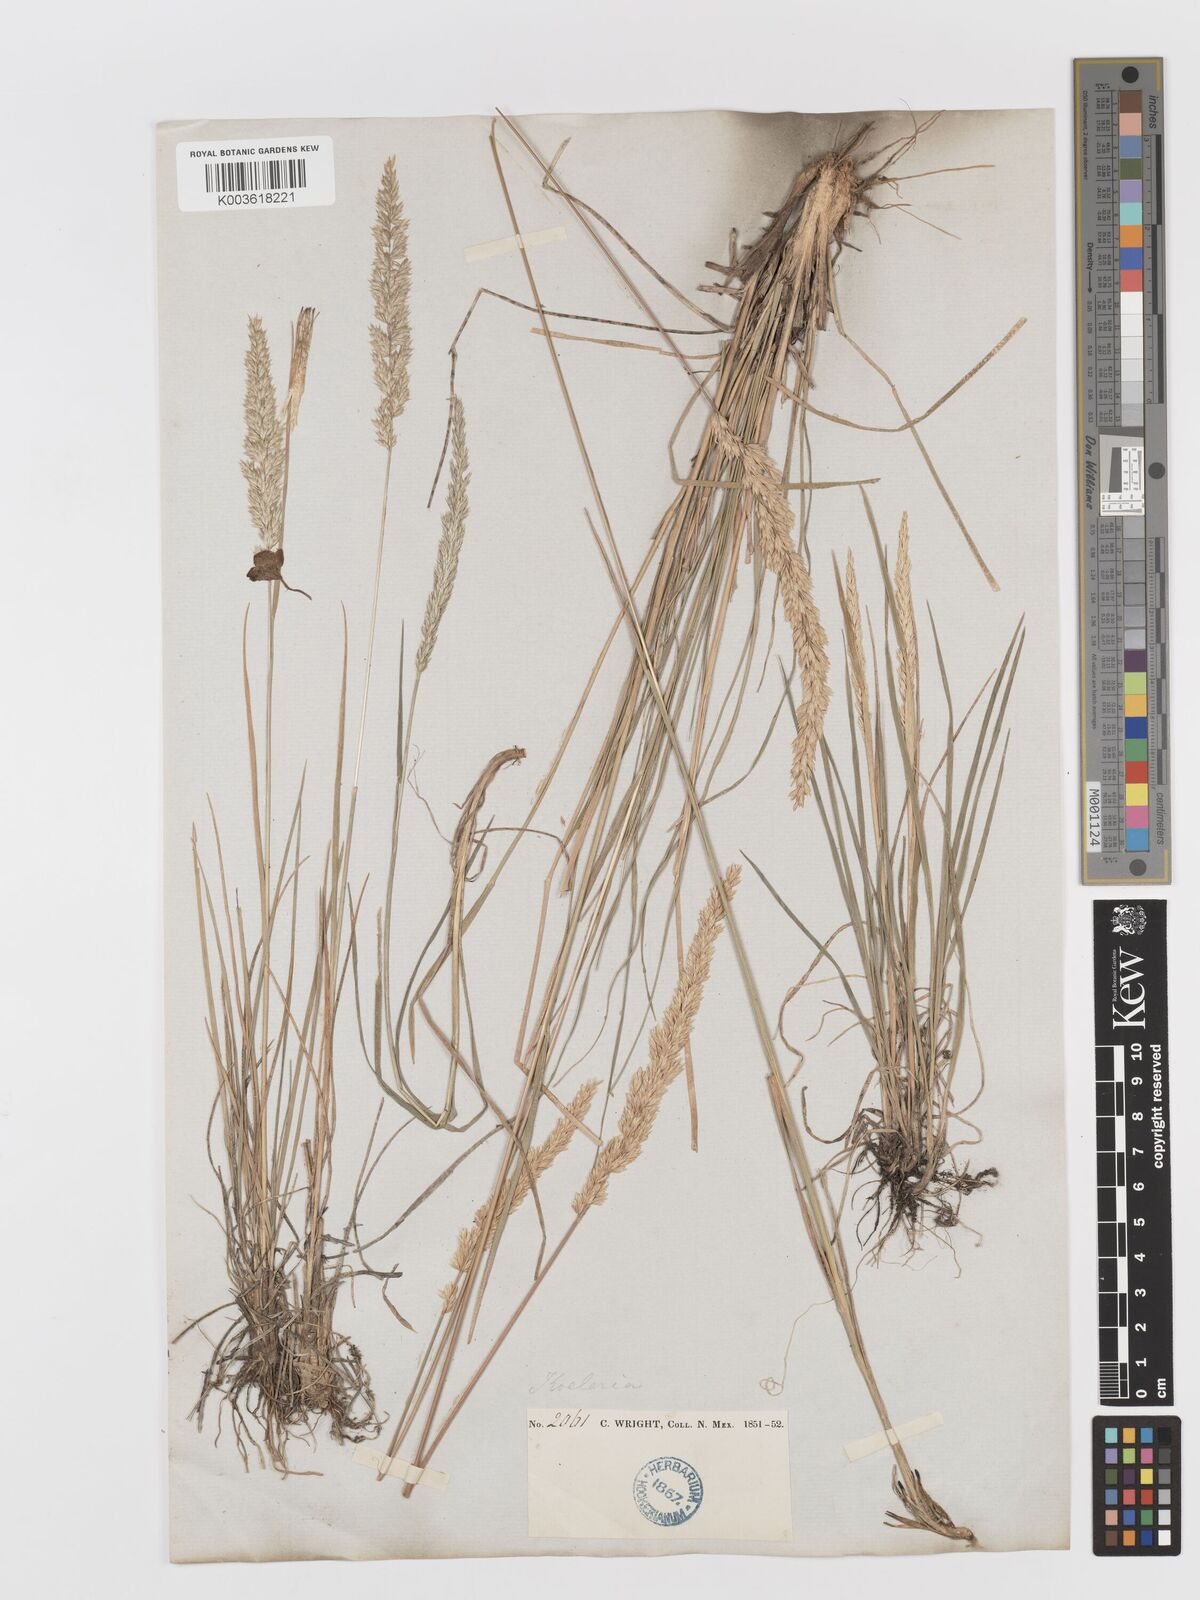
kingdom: Plantae
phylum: Tracheophyta
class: Liliopsida
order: Poales
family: Poaceae
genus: Koeleria
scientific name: Koeleria macrantha
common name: Crested hair-grass
